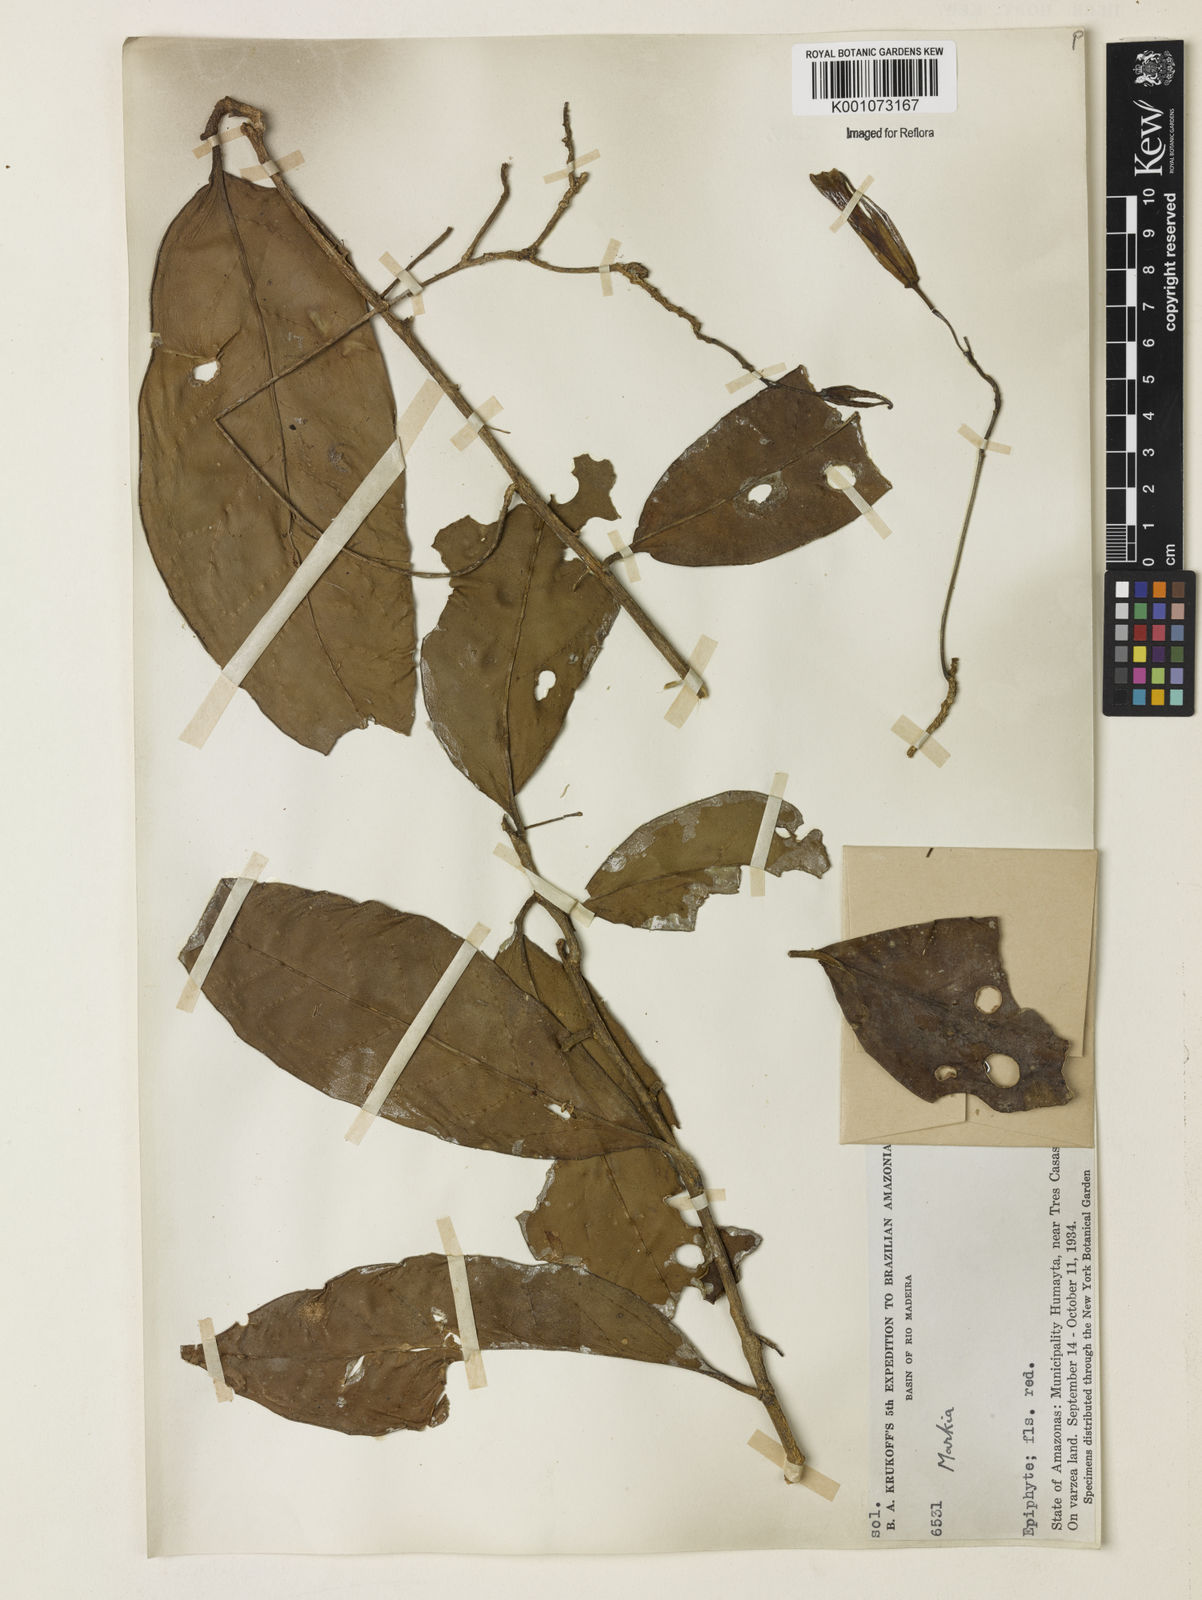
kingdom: Plantae
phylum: Tracheophyta
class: Magnoliopsida
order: Solanales
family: Solanaceae
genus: Markea
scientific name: Markea coccinea
